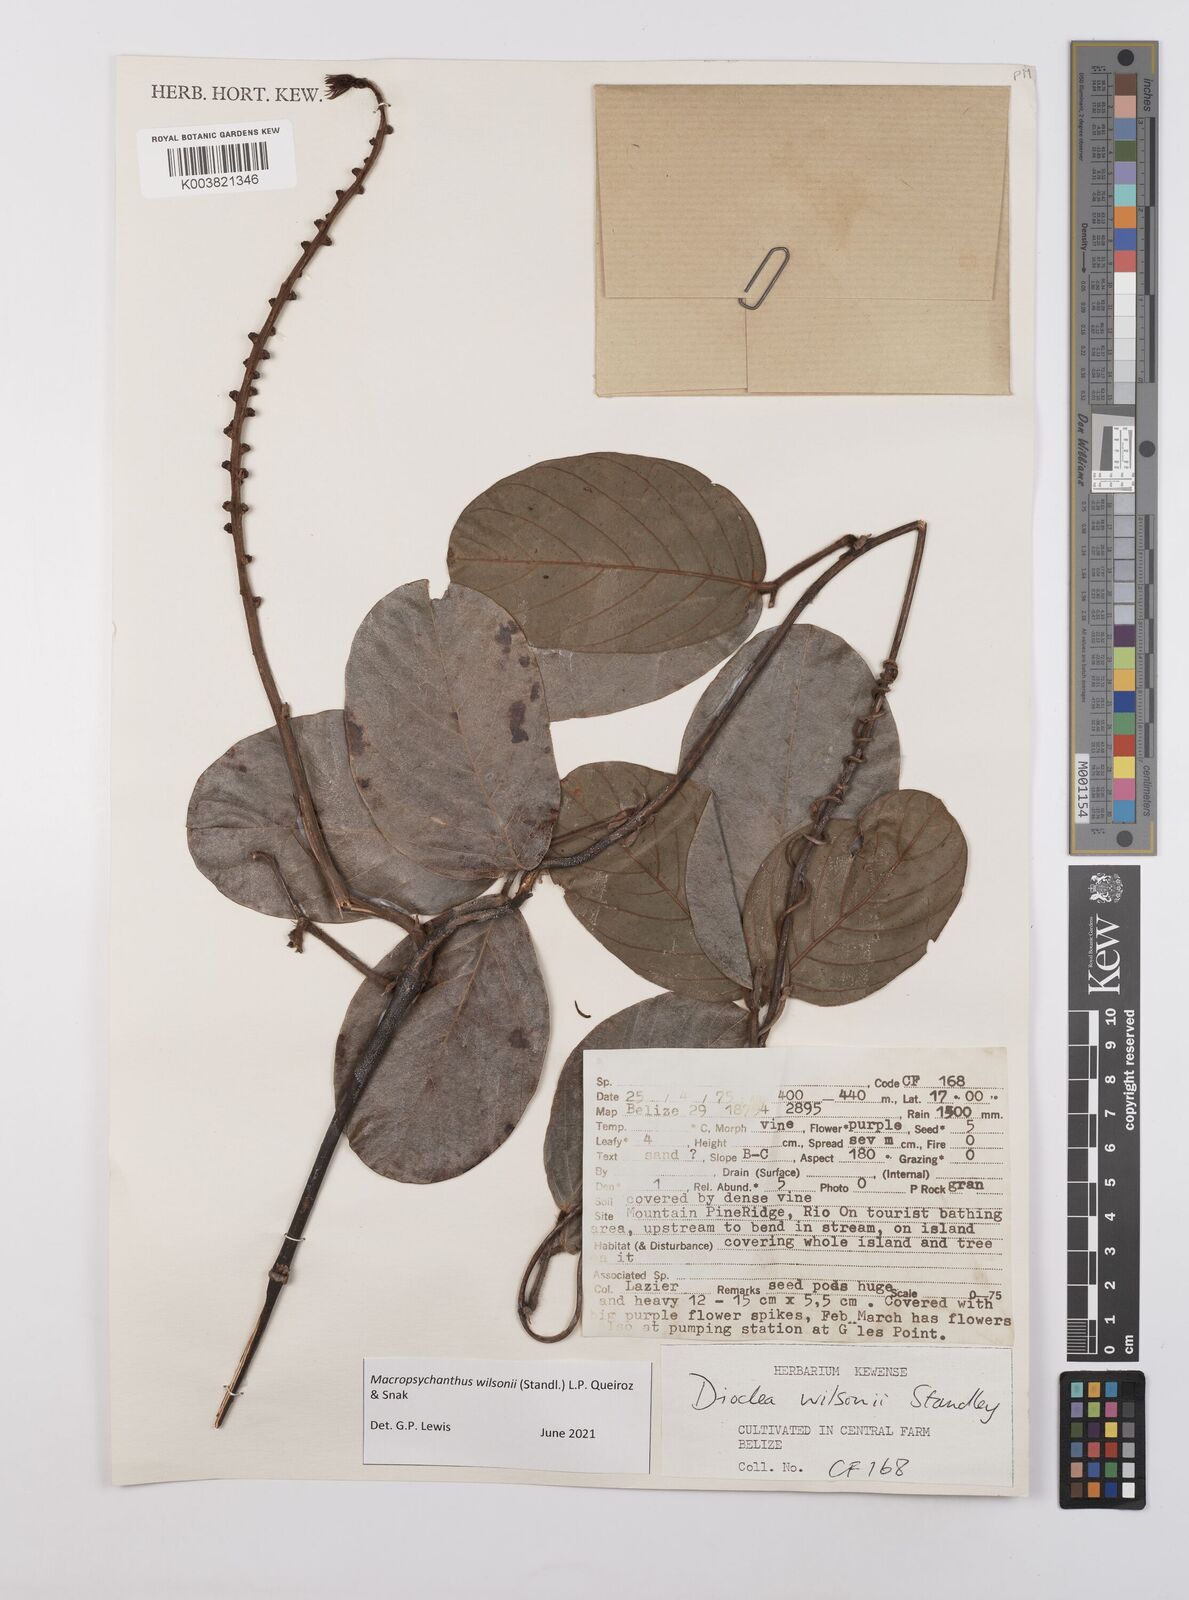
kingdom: Plantae
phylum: Tracheophyta
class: Magnoliopsida
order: Fabales
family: Fabaceae
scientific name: Fabaceae
